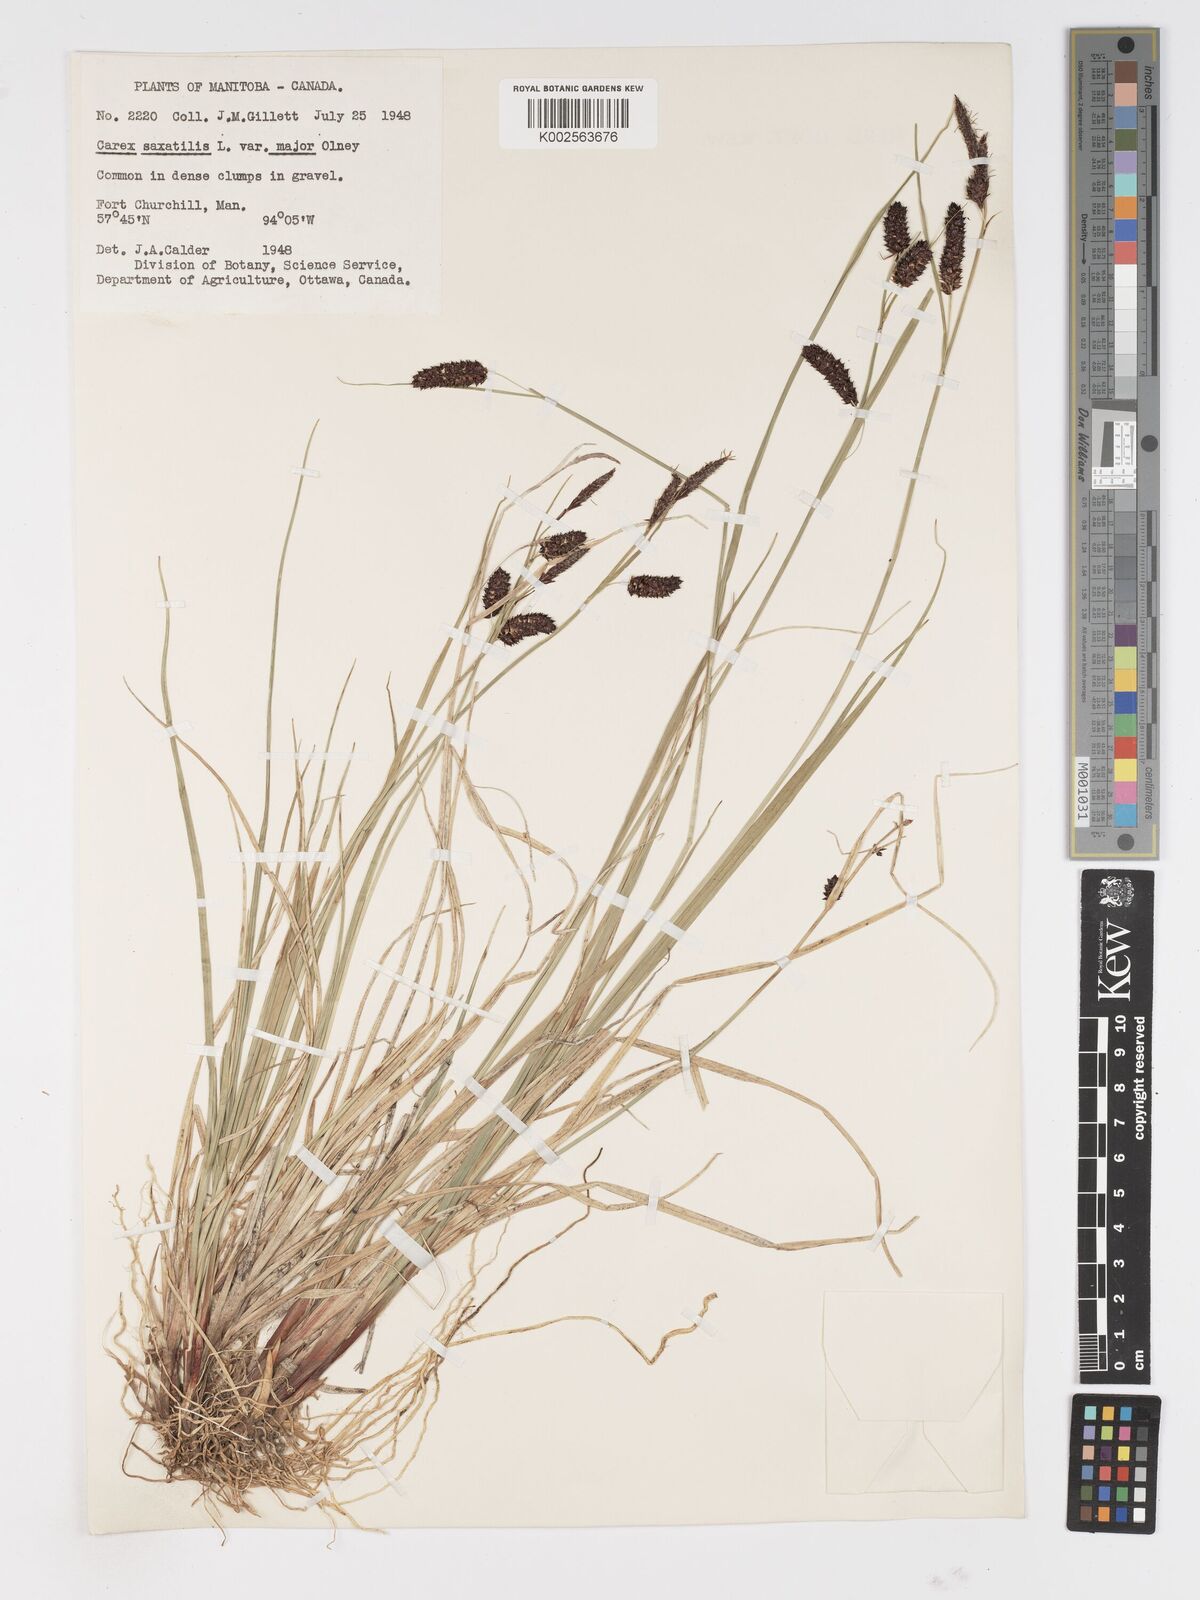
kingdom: Plantae
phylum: Tracheophyta
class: Liliopsida
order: Poales
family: Cyperaceae
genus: Carex
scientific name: Carex saxatilis
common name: Russet sedge
